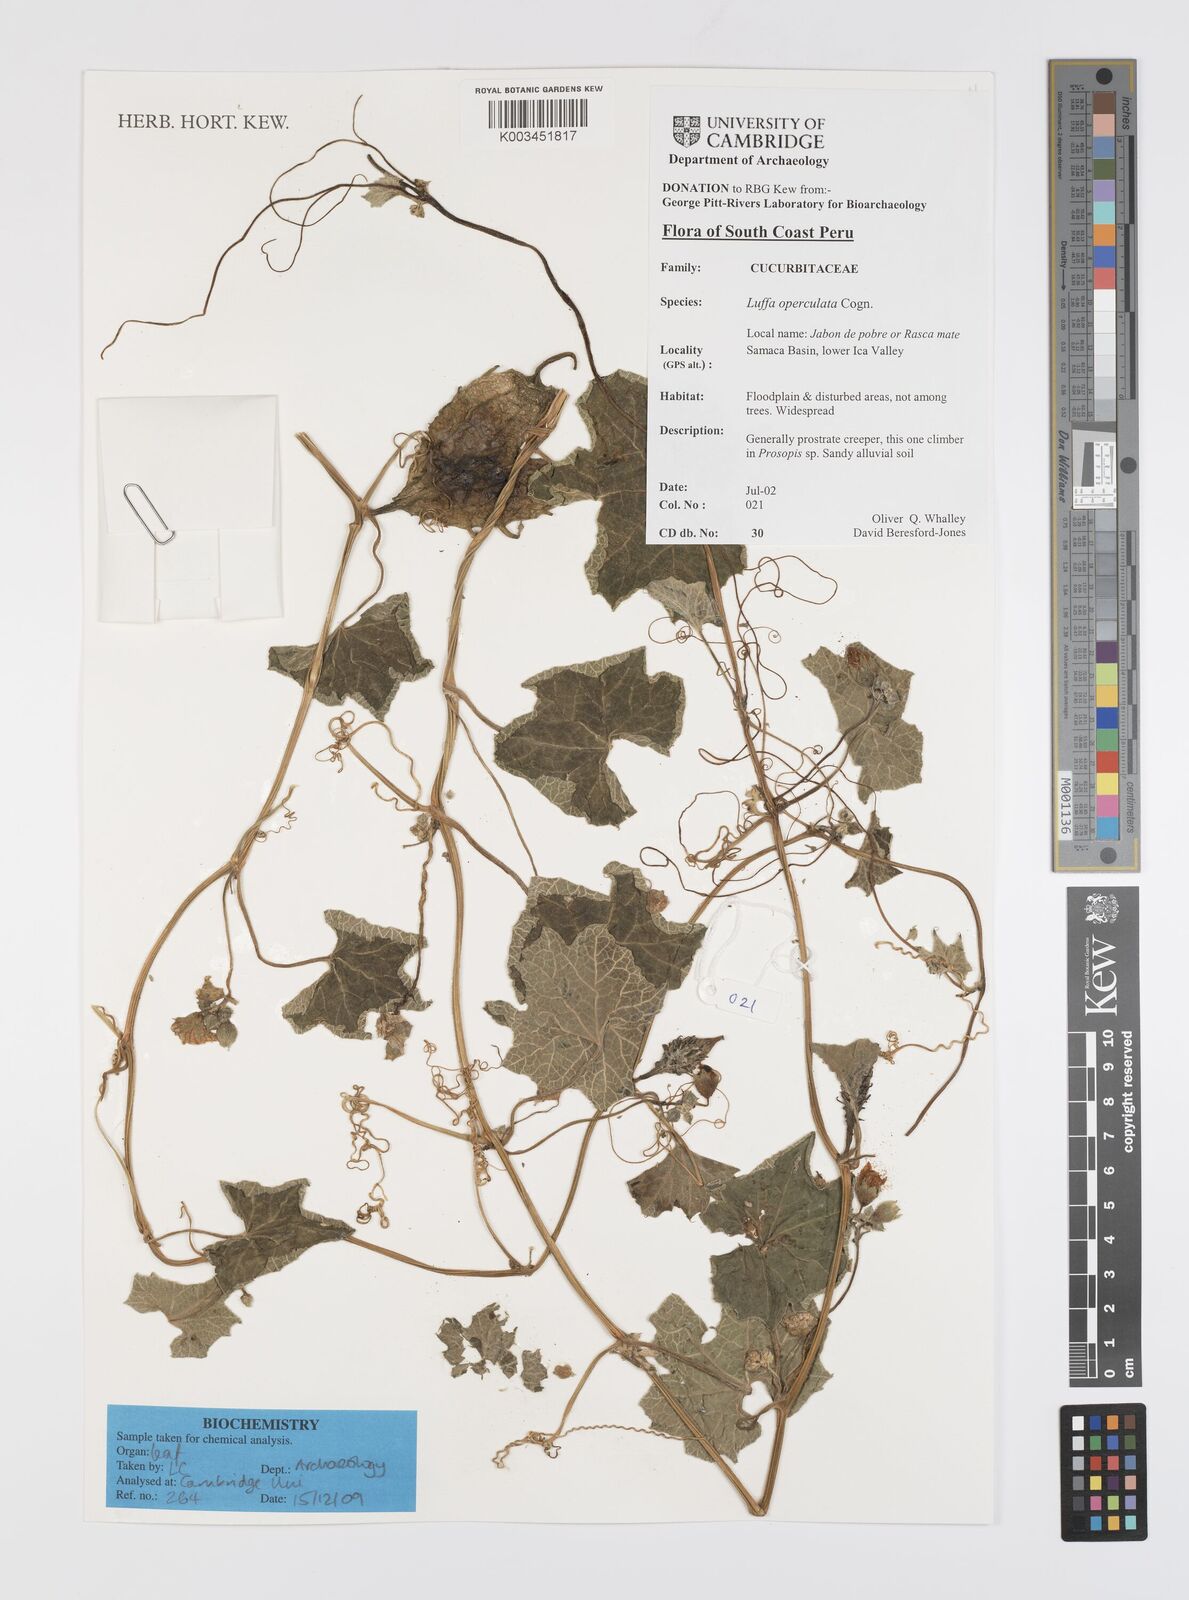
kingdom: Plantae
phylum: Tracheophyta
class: Magnoliopsida
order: Cucurbitales
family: Cucurbitaceae
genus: Luffa
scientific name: Luffa operculata
